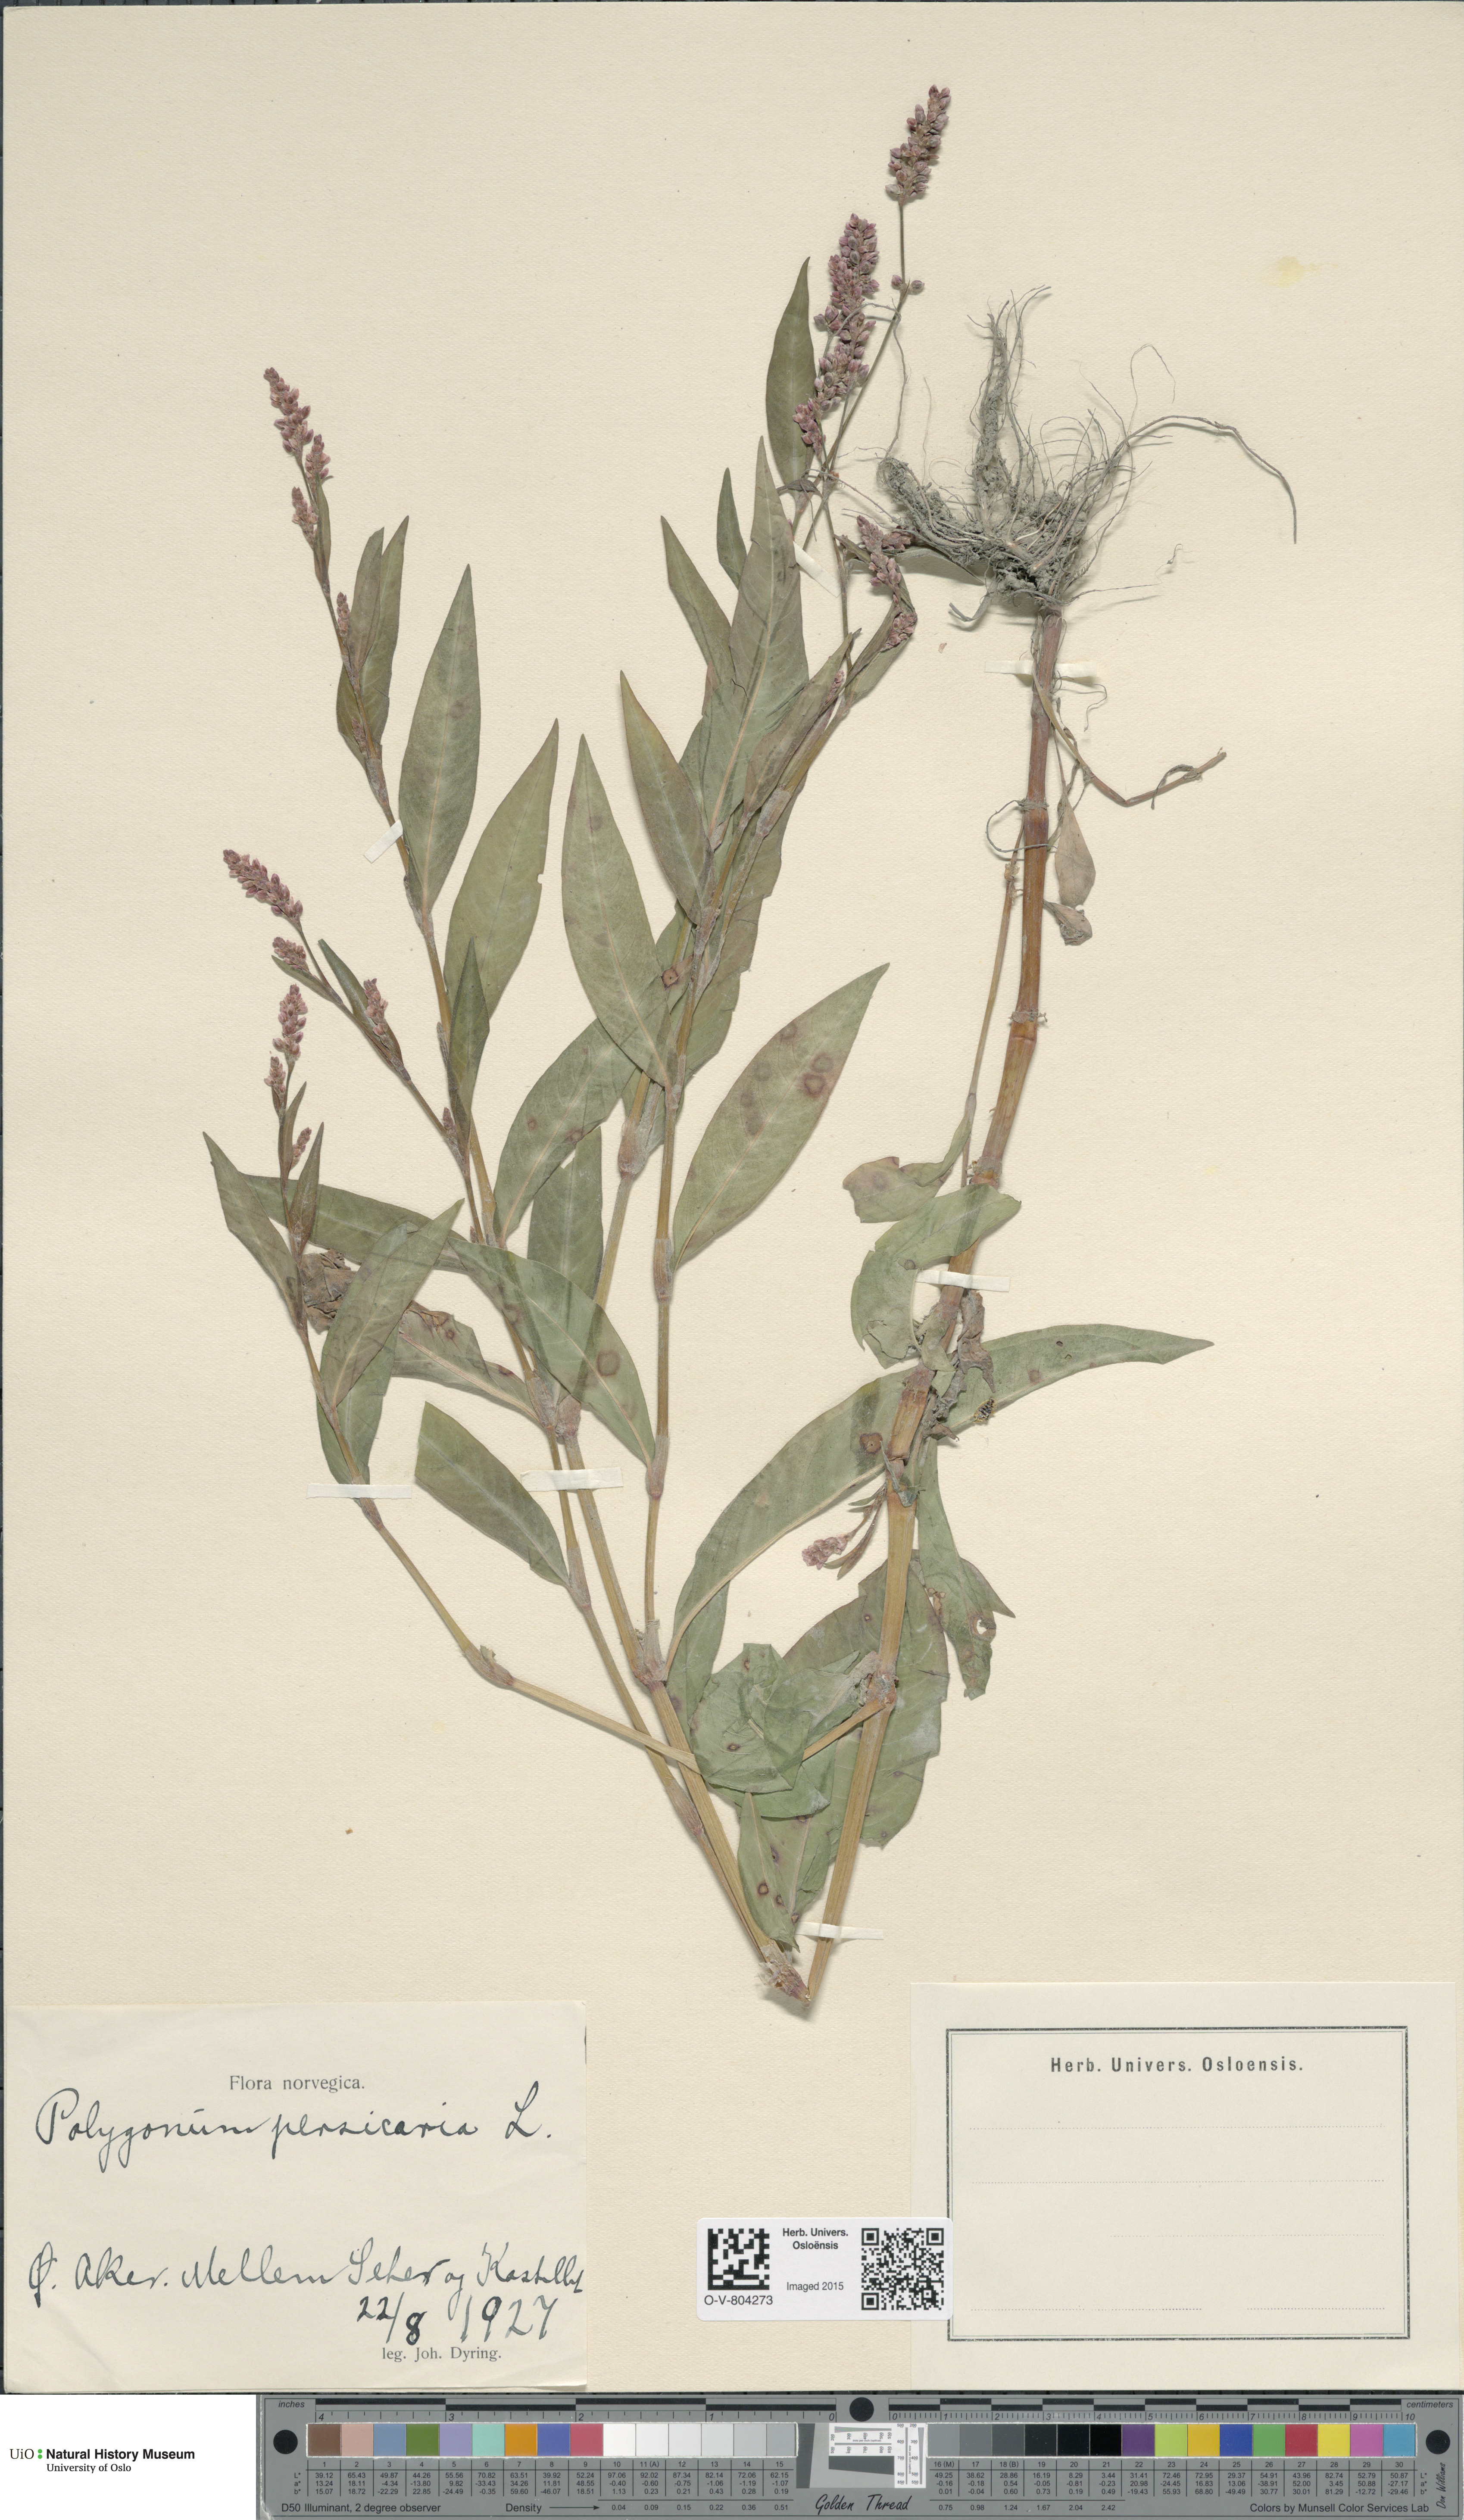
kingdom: Plantae
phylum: Tracheophyta
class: Magnoliopsida
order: Caryophyllales
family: Polygonaceae
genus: Persicaria
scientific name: Persicaria maculosa
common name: Redshank
